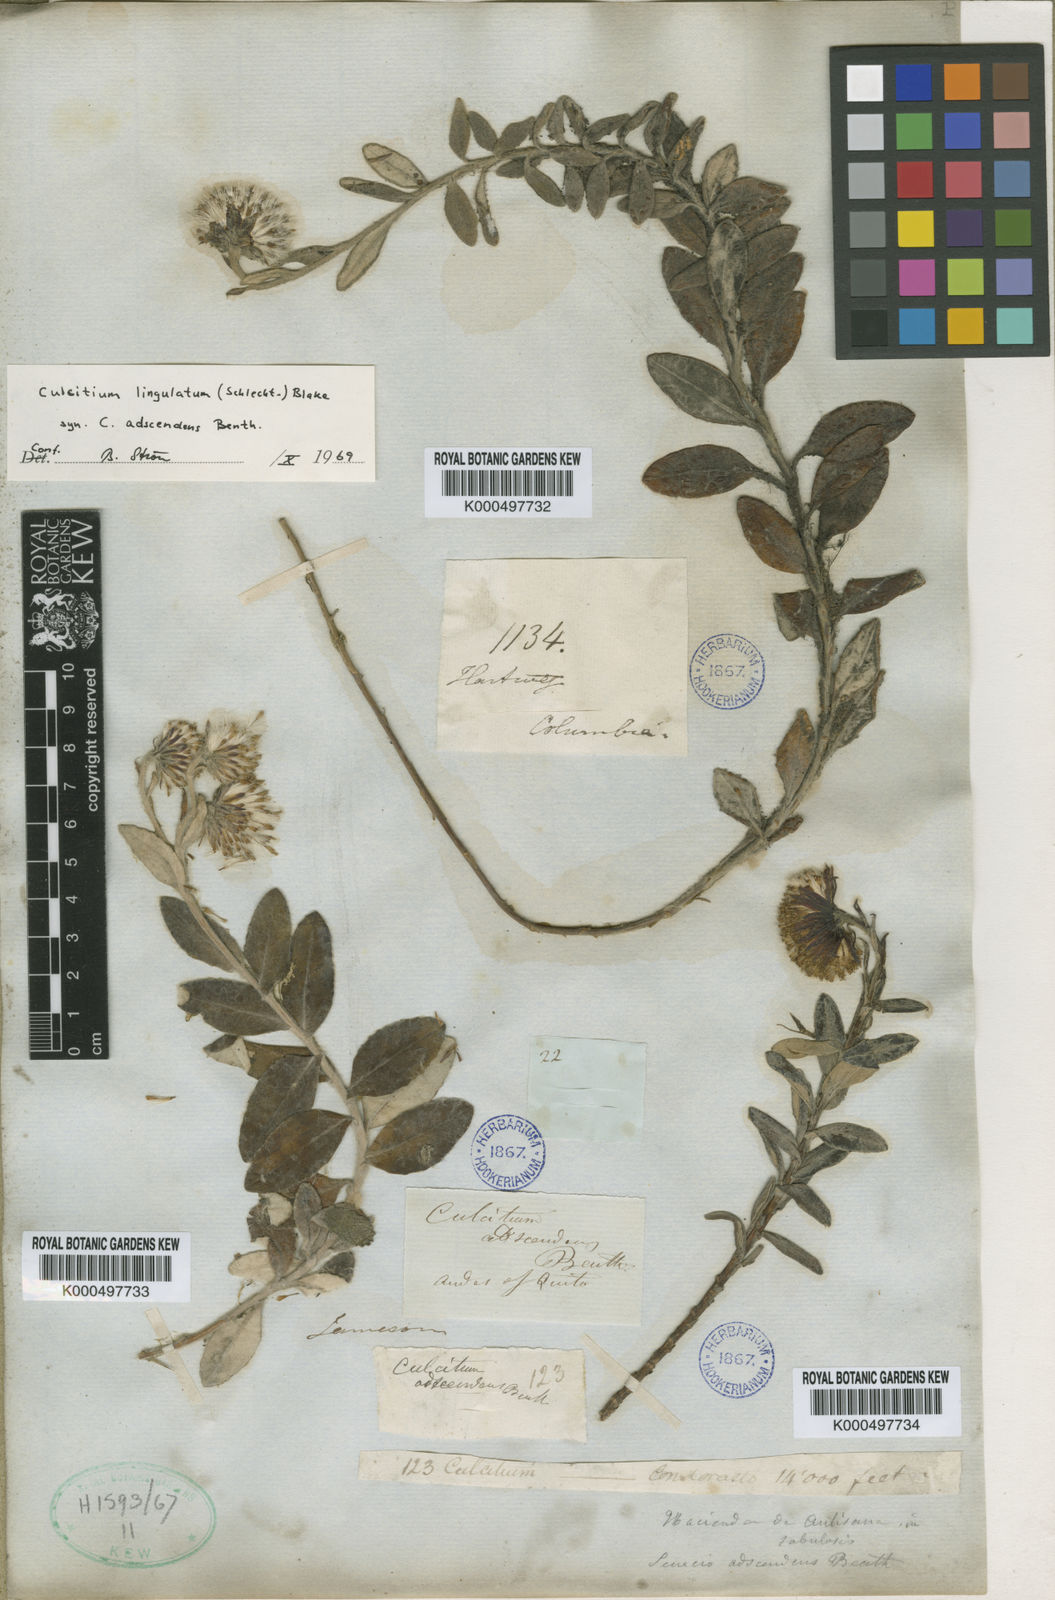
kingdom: Plantae
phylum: Tracheophyta
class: Magnoliopsida
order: Asterales
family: Asteraceae
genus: Lasiocephalus
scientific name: Lasiocephalus lingulatus
